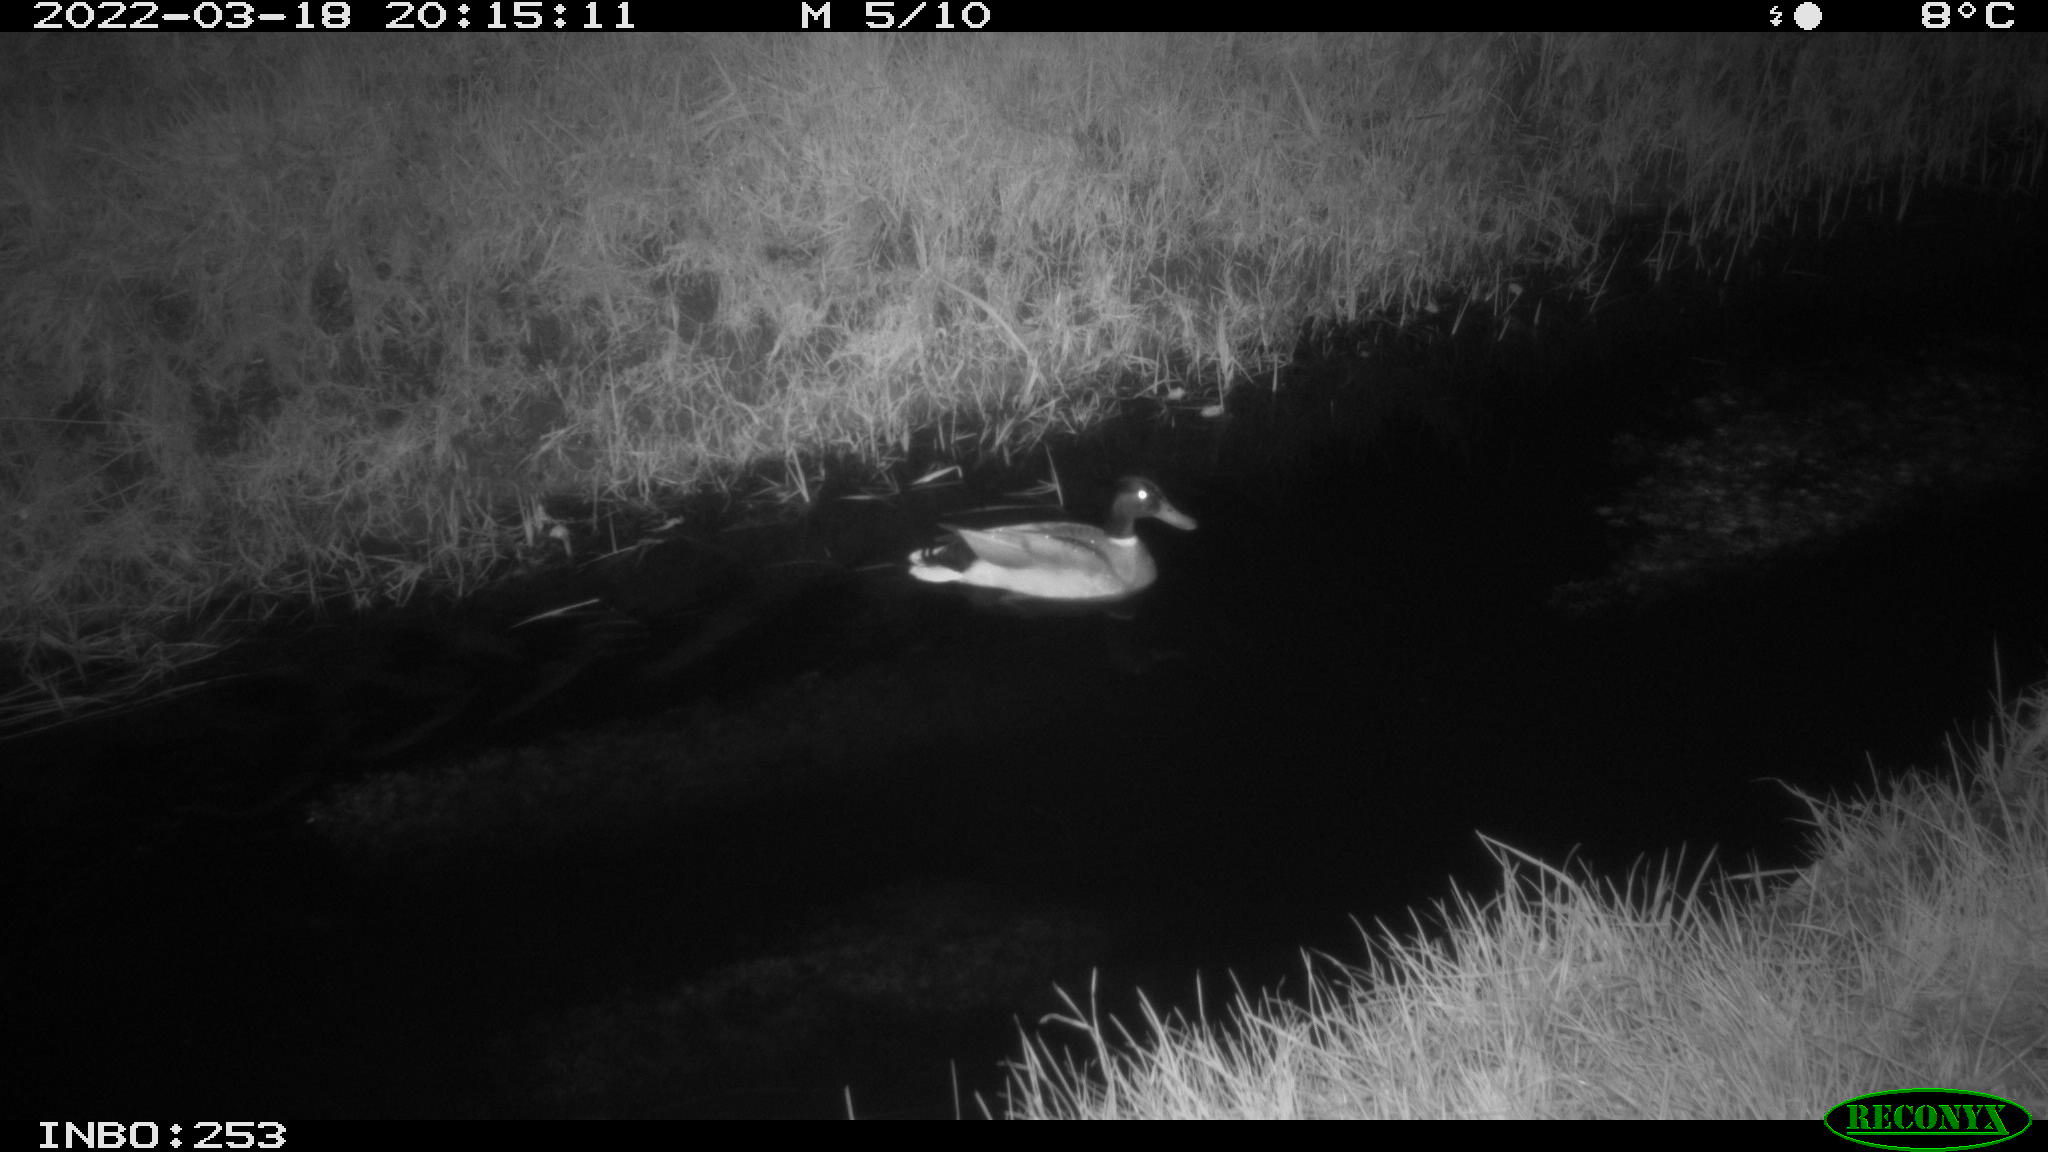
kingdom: Animalia
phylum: Chordata
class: Aves
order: Anseriformes
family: Anatidae
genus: Anas
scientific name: Anas platyrhynchos
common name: Mallard
